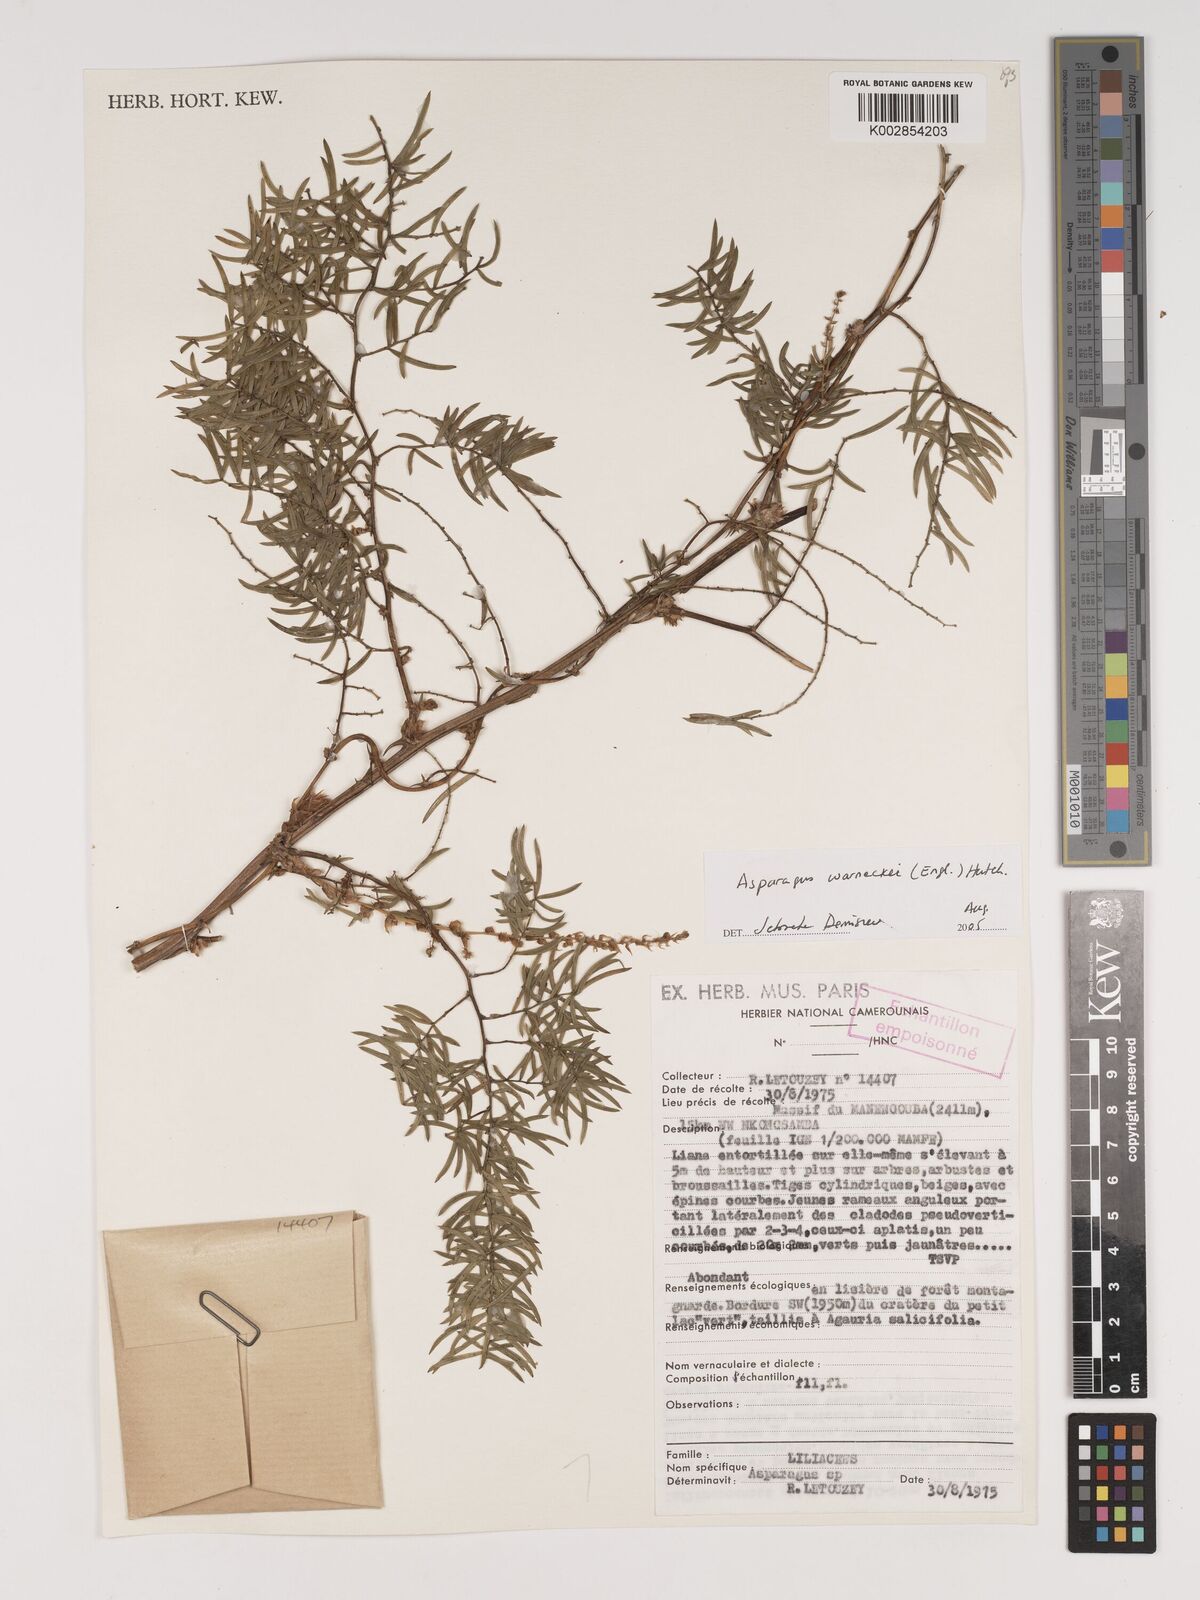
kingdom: Plantae
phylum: Tracheophyta
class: Liliopsida
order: Asparagales
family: Asparagaceae
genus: Asparagus
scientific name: Asparagus warneckei
